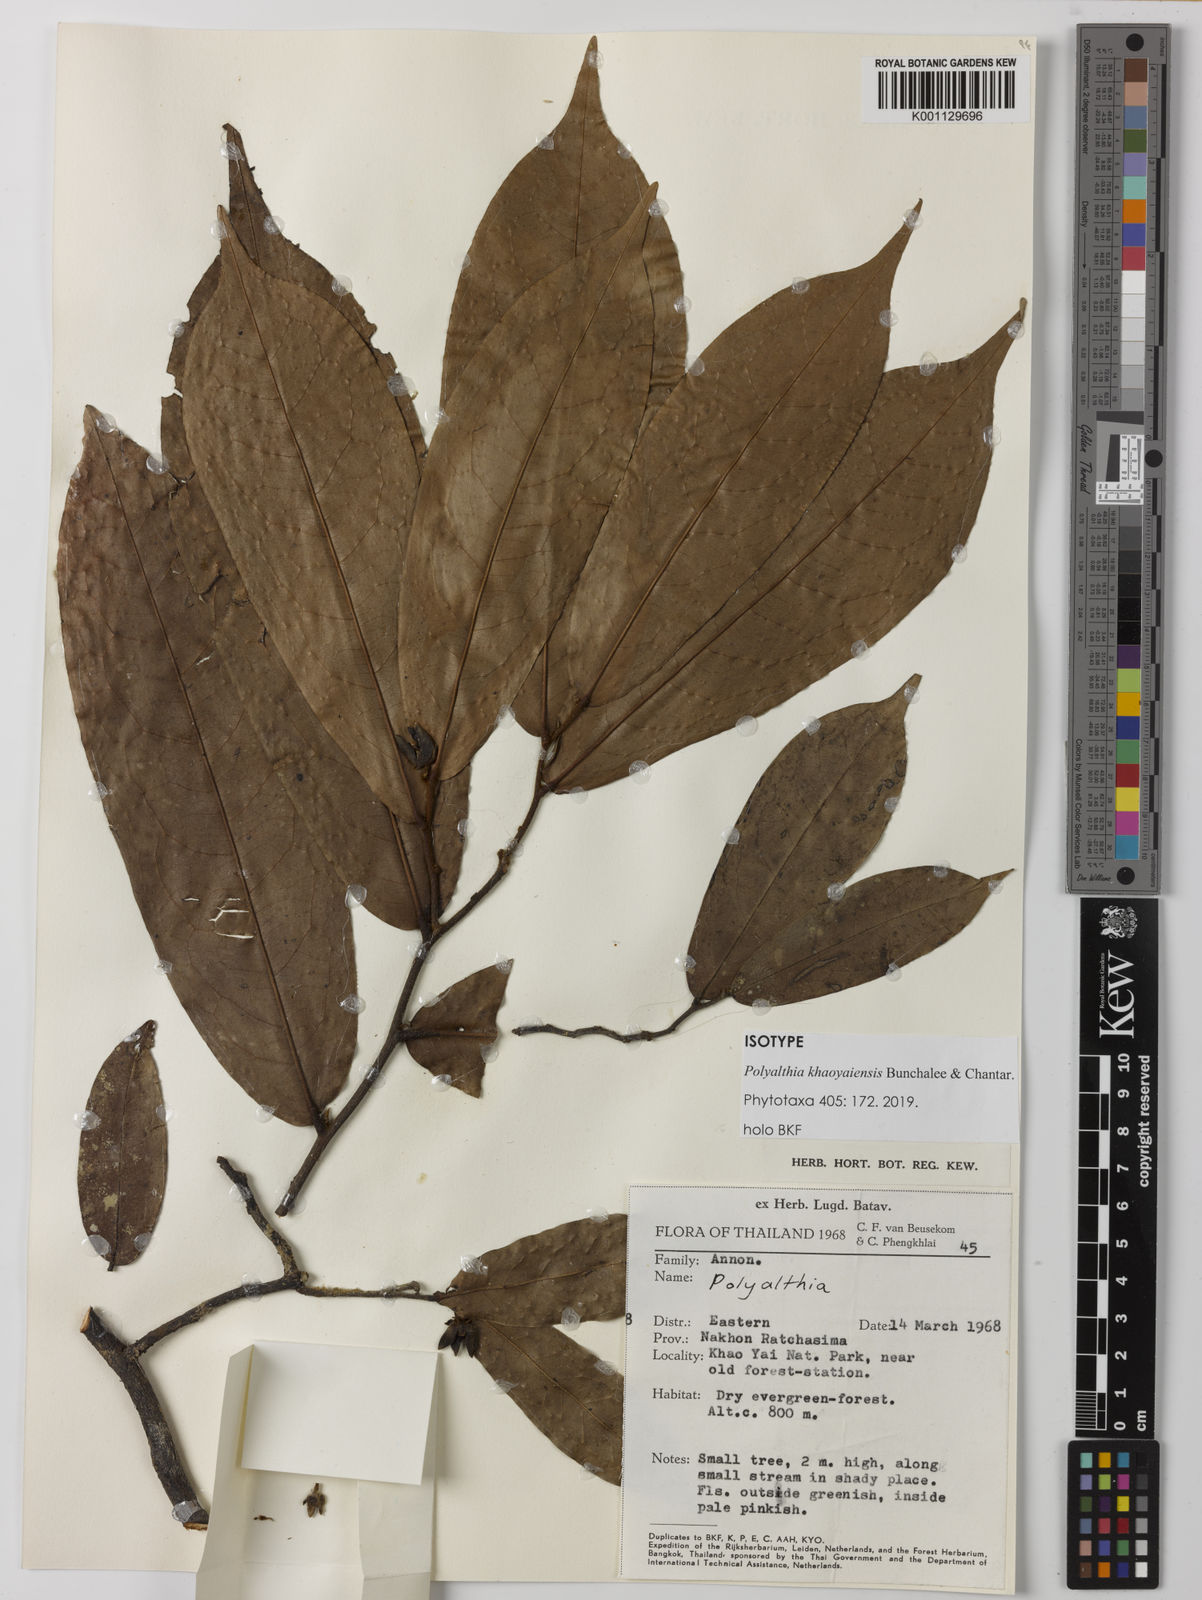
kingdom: Plantae
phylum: Tracheophyta
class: Magnoliopsida
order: Magnoliales
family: Annonaceae
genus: Polyalthia
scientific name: Polyalthia khaoyaiensis
